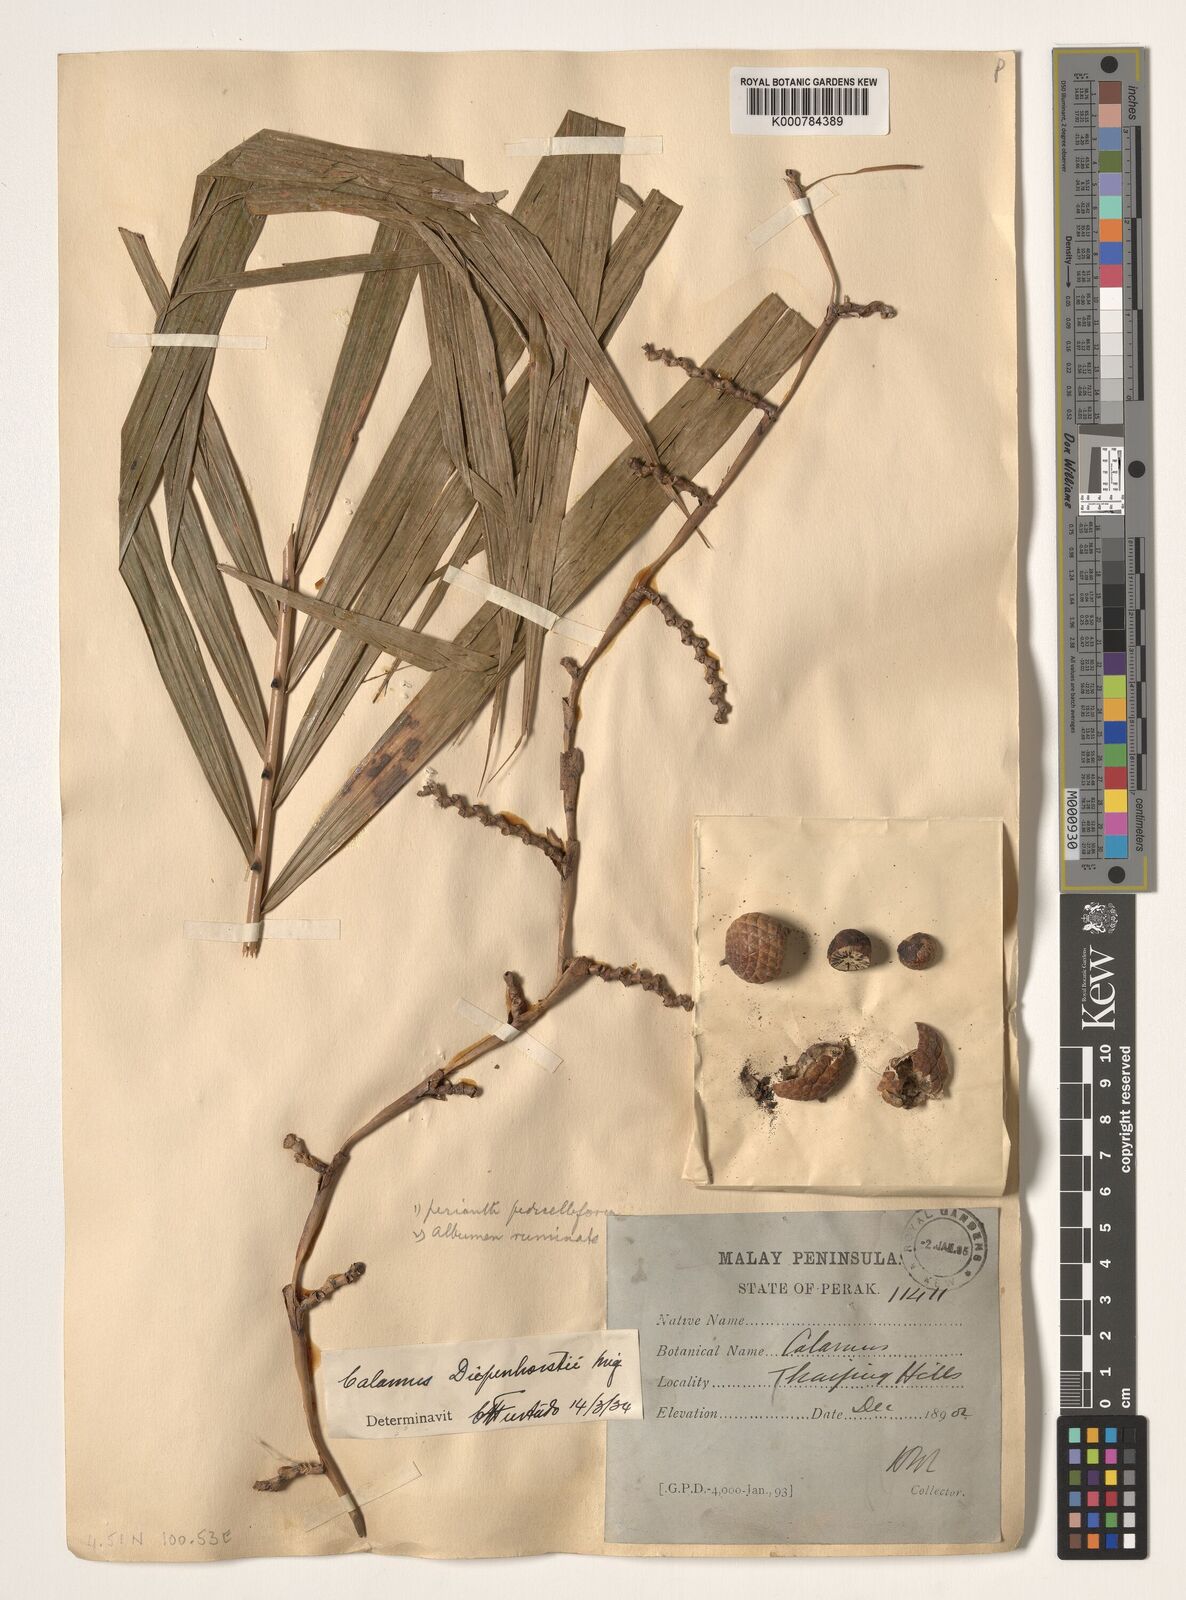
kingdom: Plantae
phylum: Tracheophyta
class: Liliopsida
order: Arecales
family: Arecaceae
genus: Calamus
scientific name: Calamus diepenhorstii
